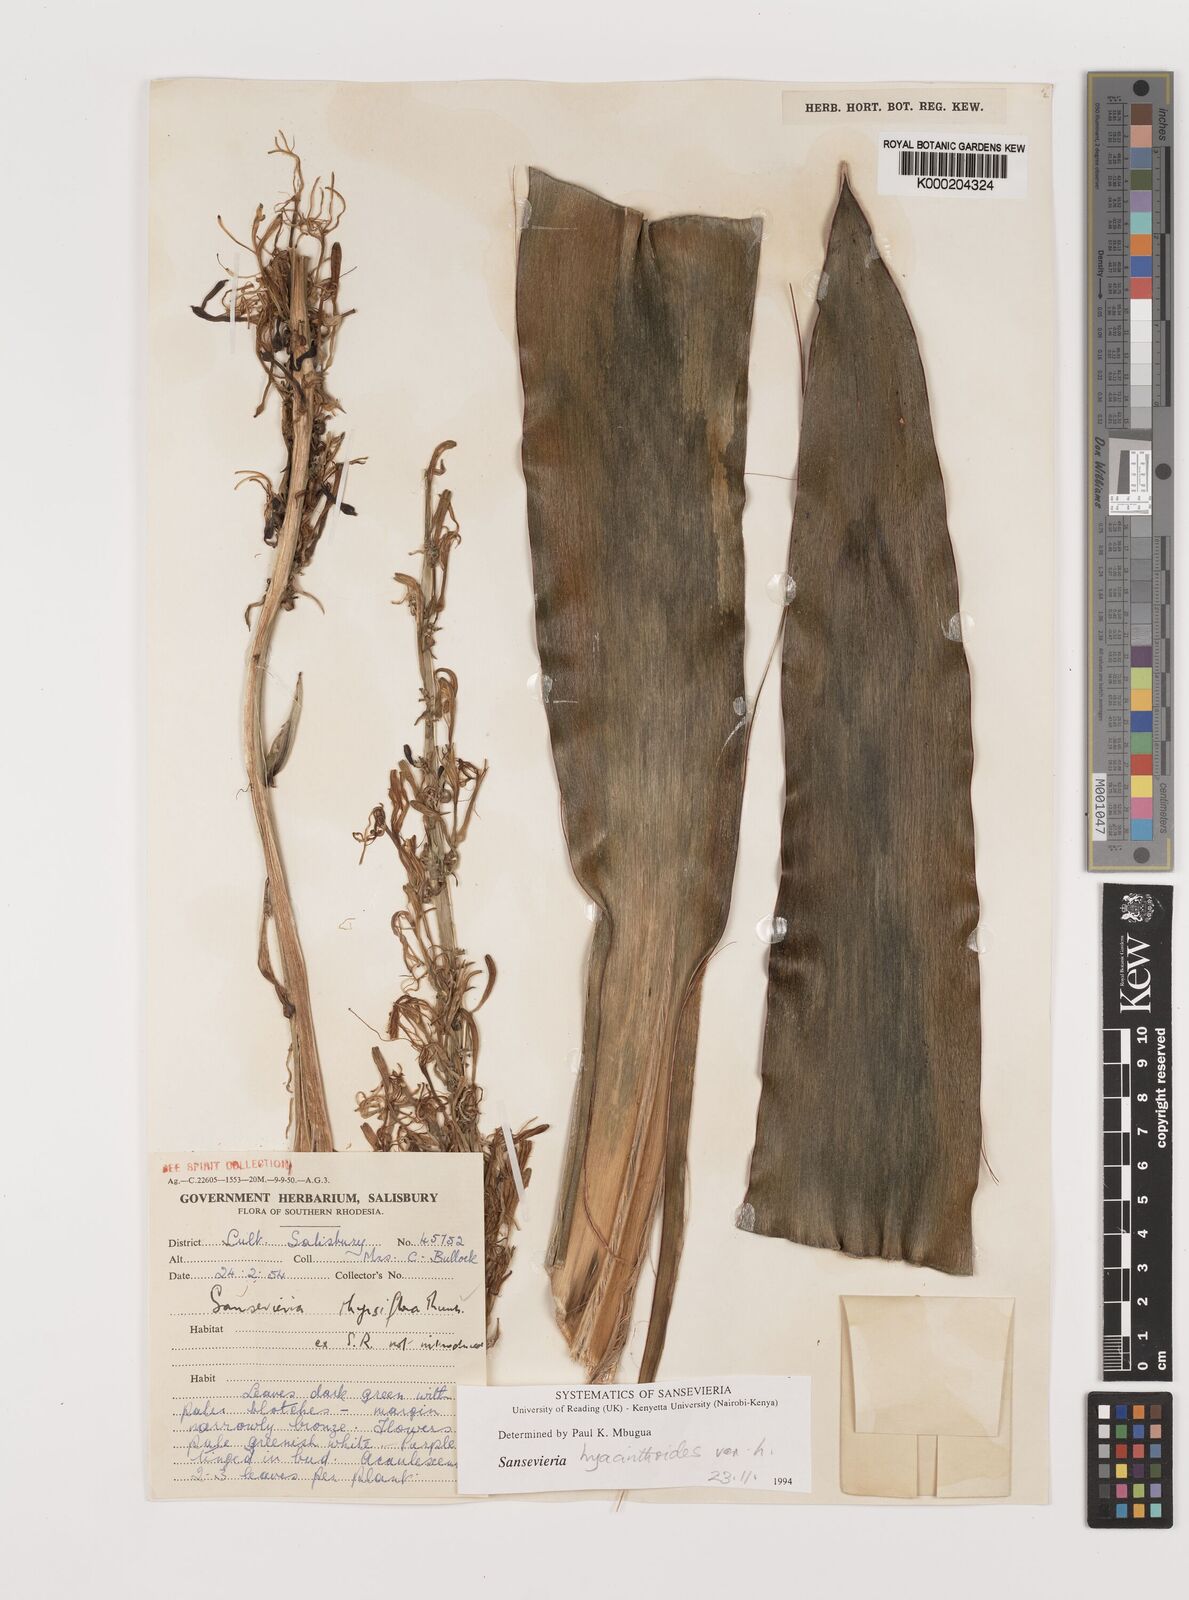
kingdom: Plantae
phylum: Tracheophyta
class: Liliopsida
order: Asparagales
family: Asparagaceae
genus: Dracaena
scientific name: Dracaena powellii
